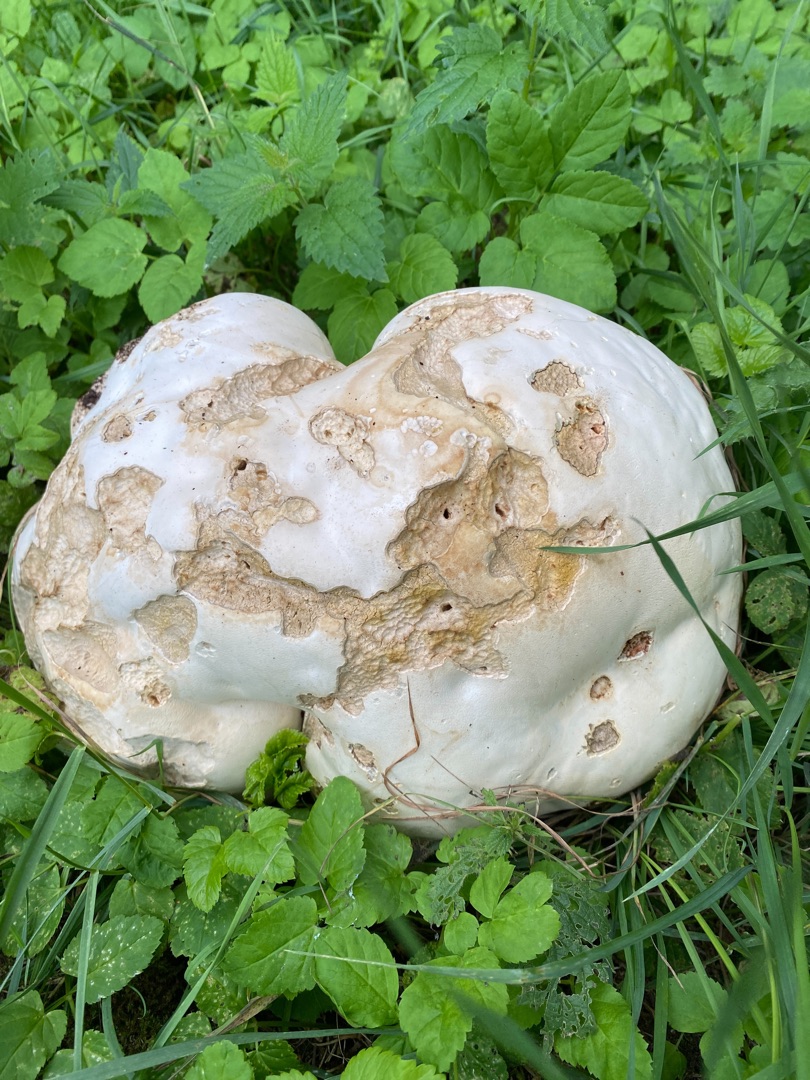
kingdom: Fungi
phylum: Basidiomycota
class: Agaricomycetes
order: Agaricales
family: Lycoperdaceae
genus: Calvatia
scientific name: Calvatia gigantea
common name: Kæmpestøvbold
